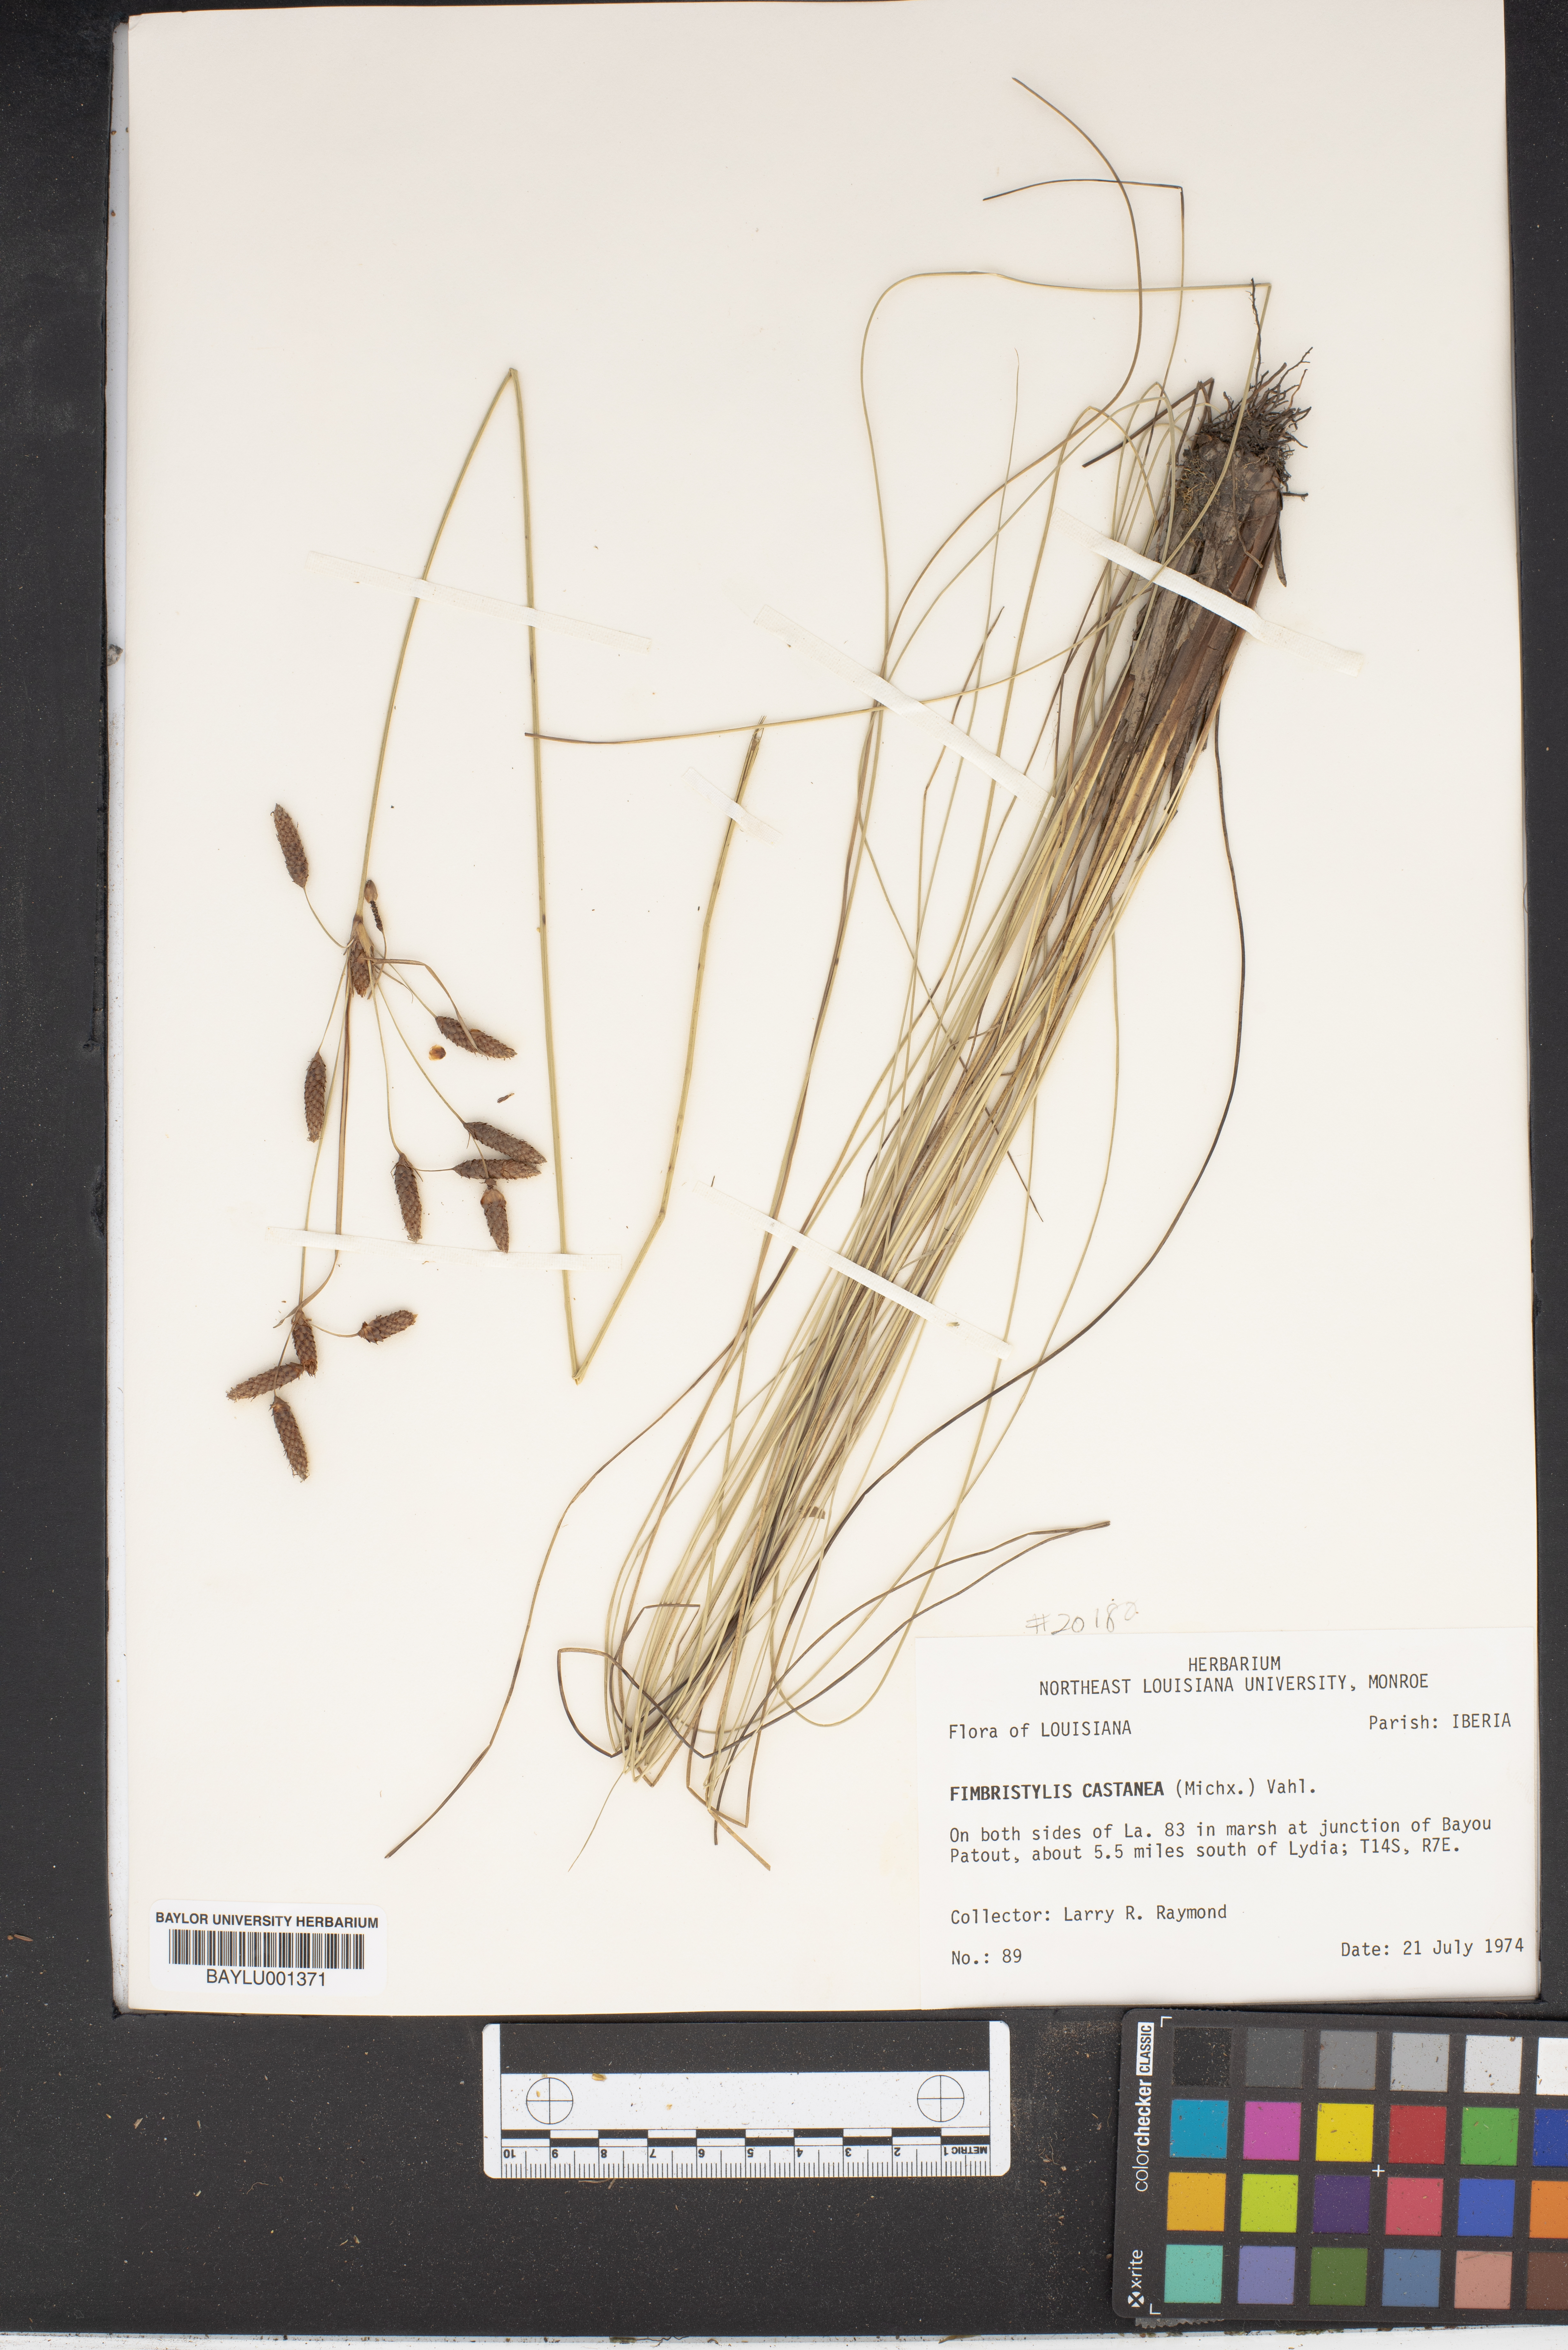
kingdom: Plantae
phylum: Tracheophyta
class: Liliopsida
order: Poales
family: Cyperaceae
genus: Fimbristylis
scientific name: Fimbristylis spadicea
